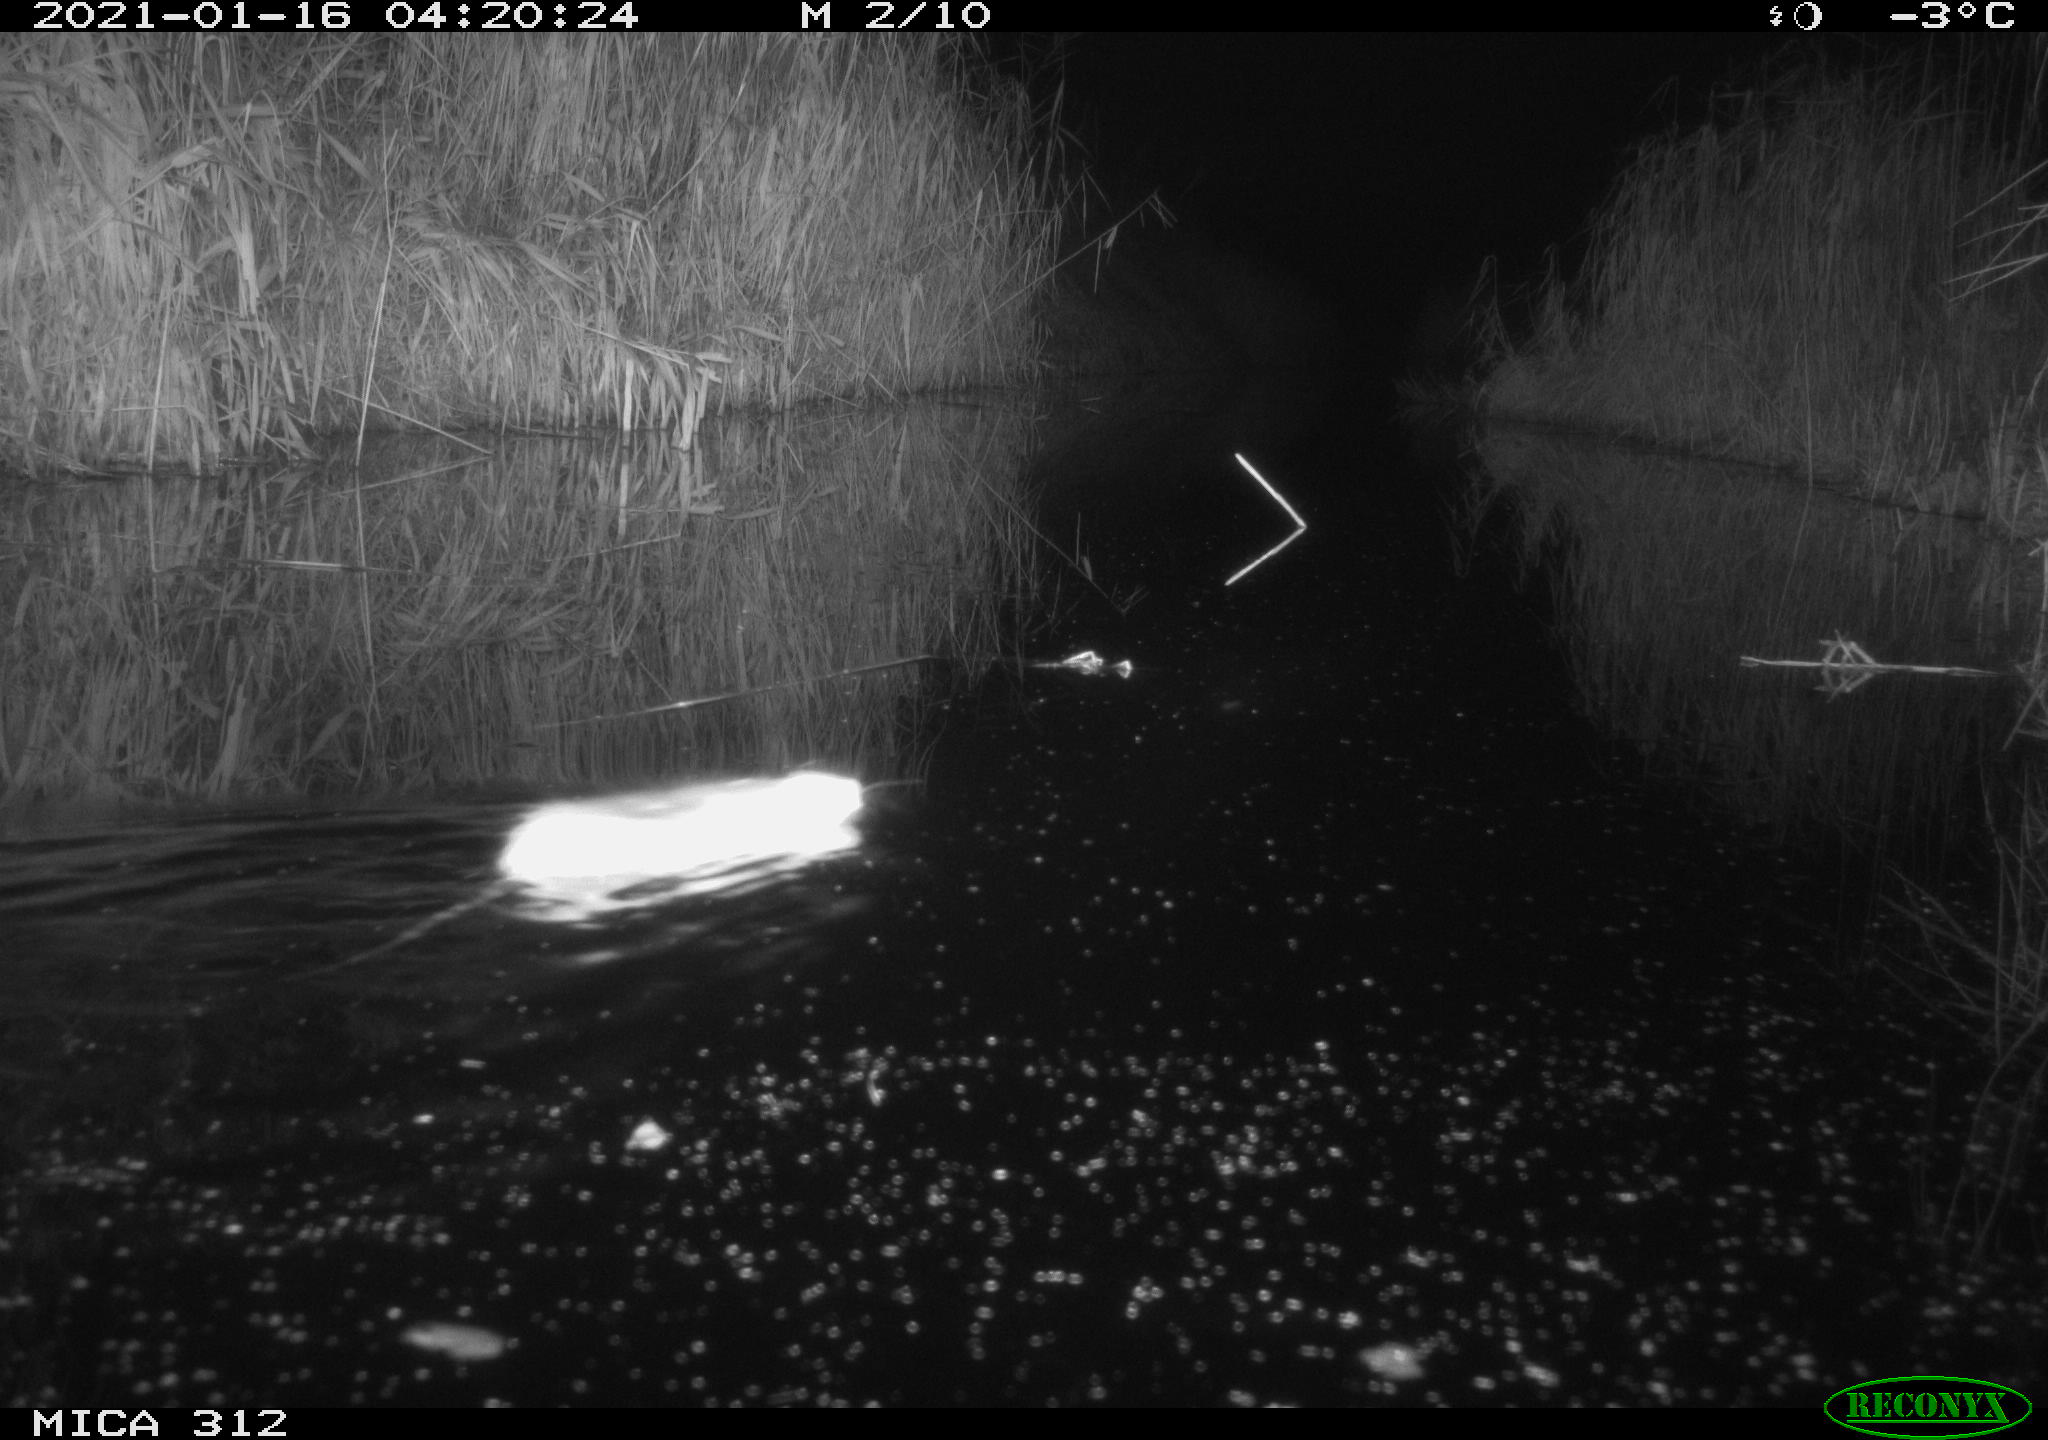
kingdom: Animalia
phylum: Chordata
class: Mammalia
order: Rodentia
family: Muridae
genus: Rattus
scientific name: Rattus norvegicus
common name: Brown rat
